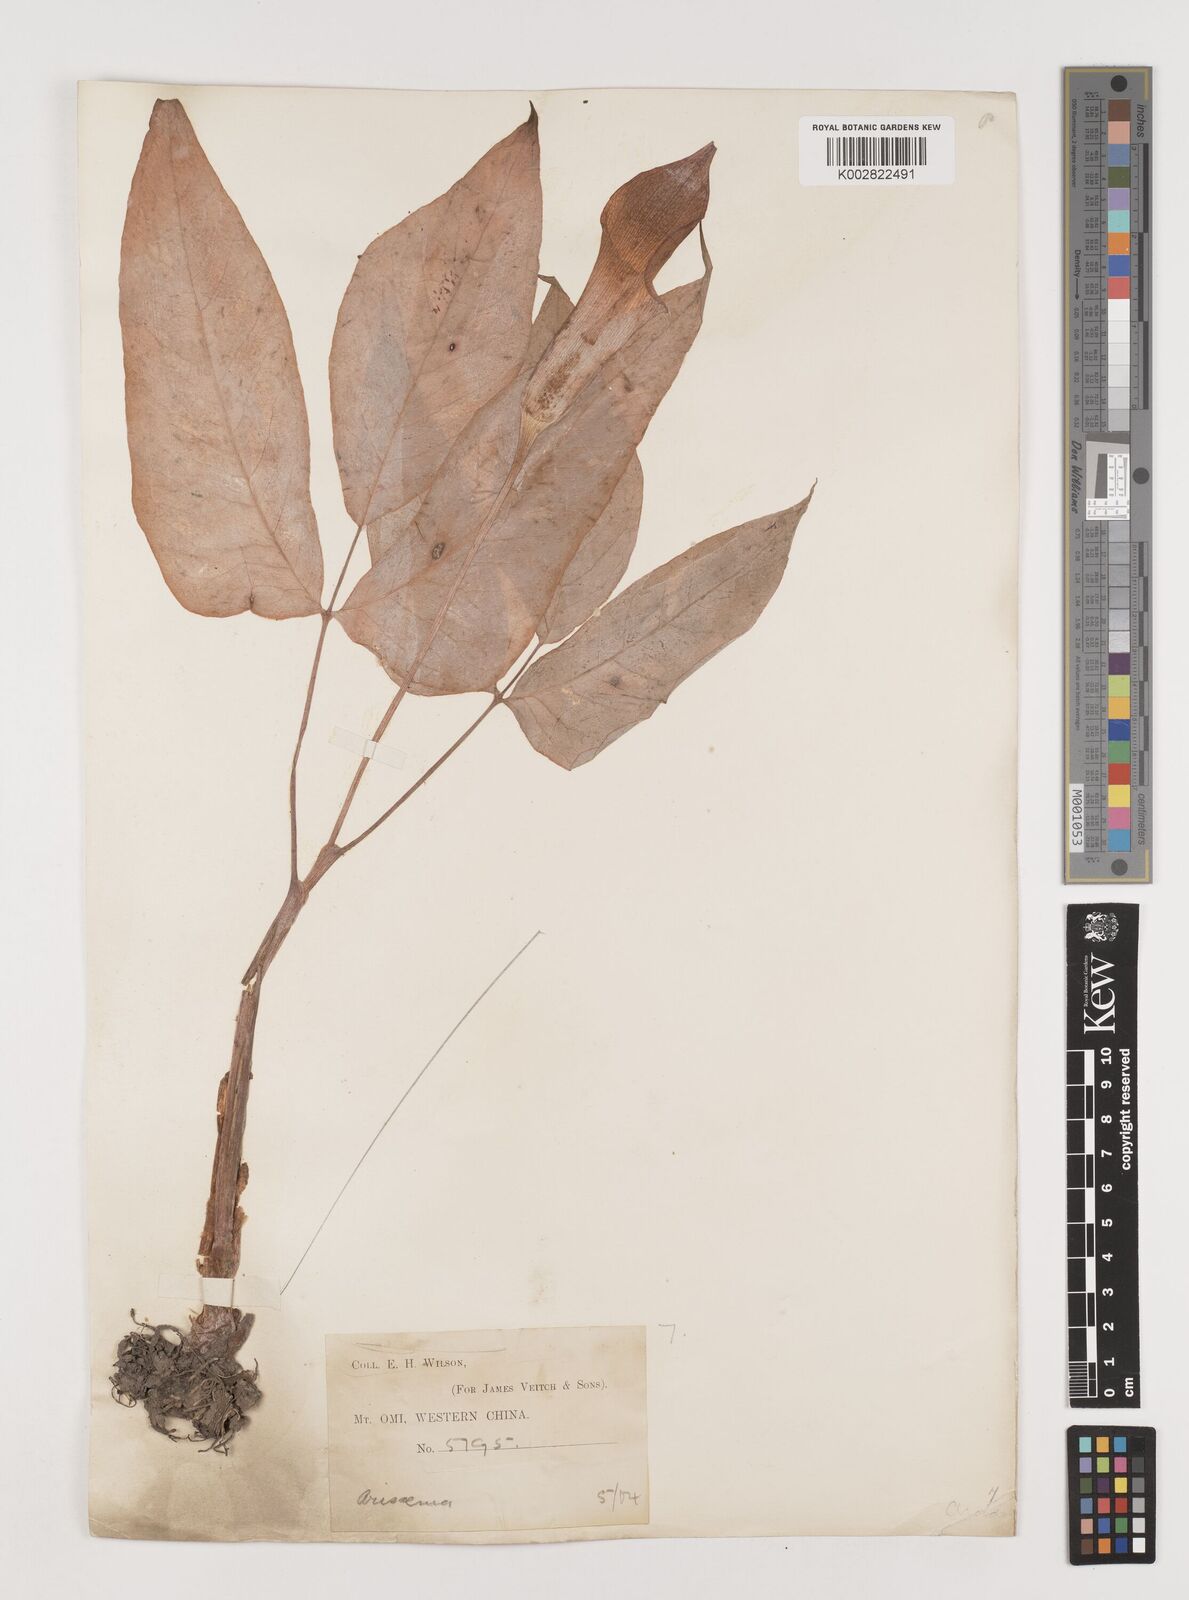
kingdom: Plantae
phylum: Tracheophyta
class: Liliopsida
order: Alismatales
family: Araceae
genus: Arisaema
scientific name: Arisaema lobatum
